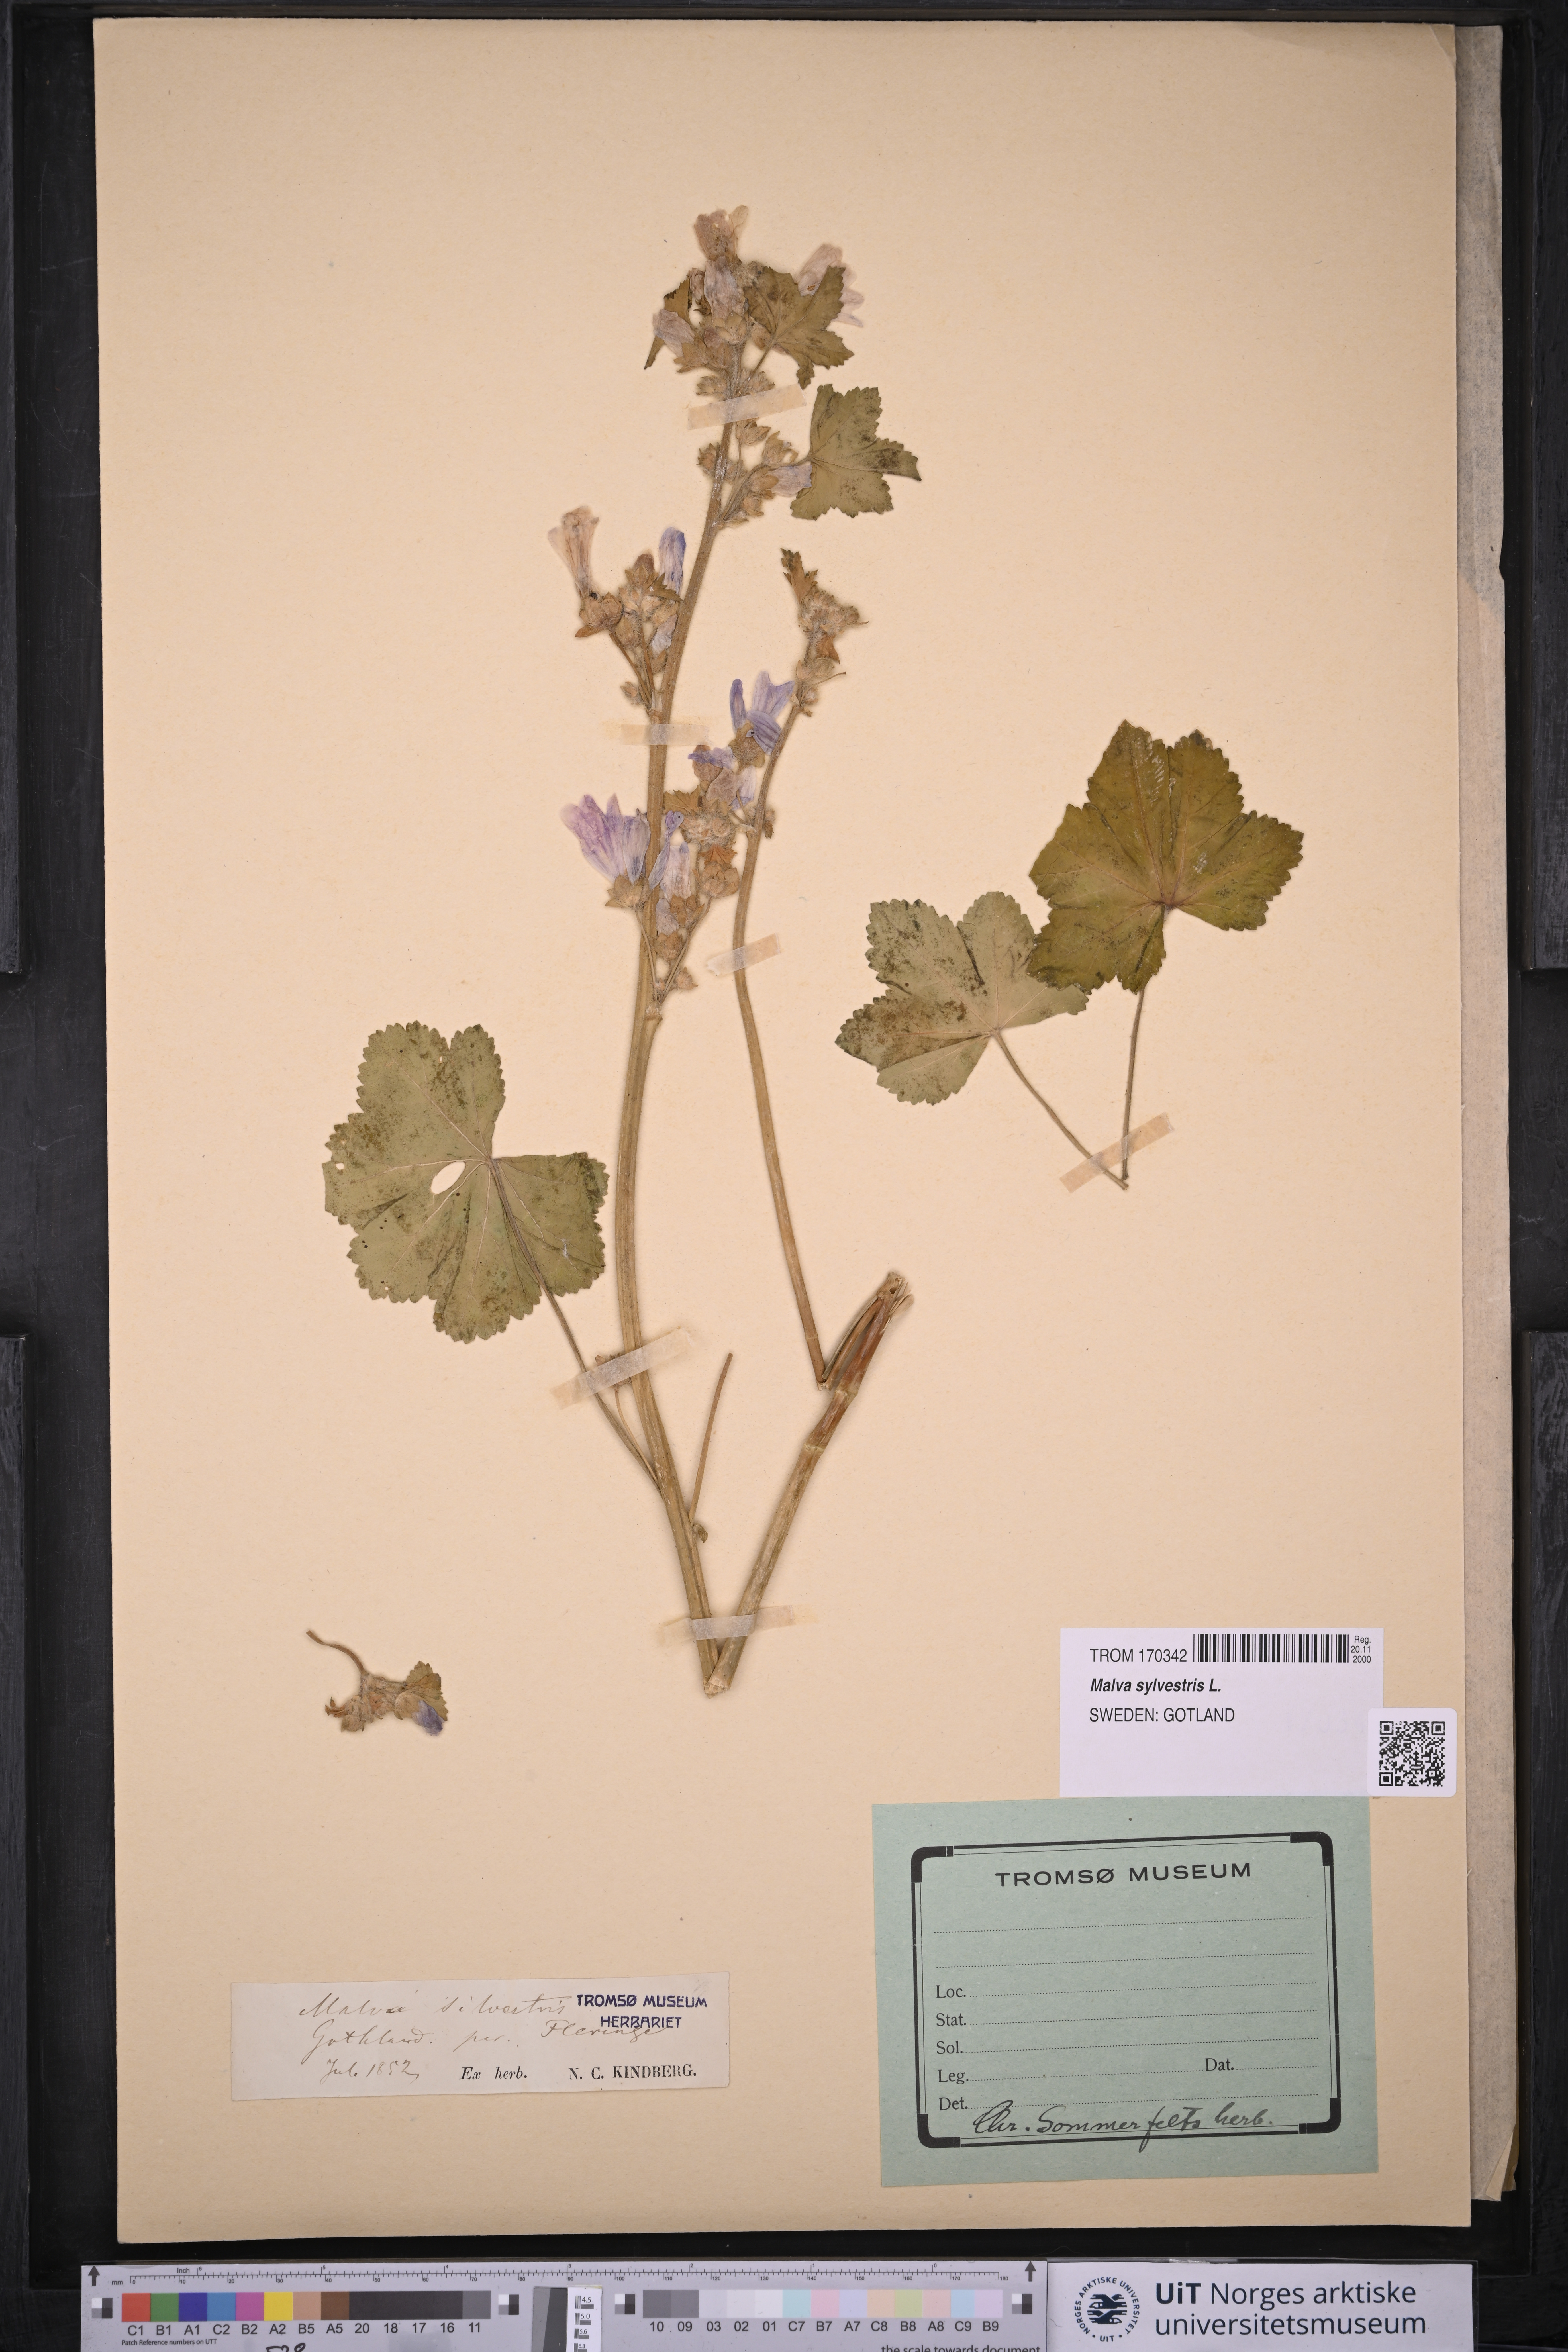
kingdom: Plantae
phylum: Tracheophyta
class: Magnoliopsida
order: Malvales
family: Malvaceae
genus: Malva
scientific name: Malva sylvestris
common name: Common mallow
